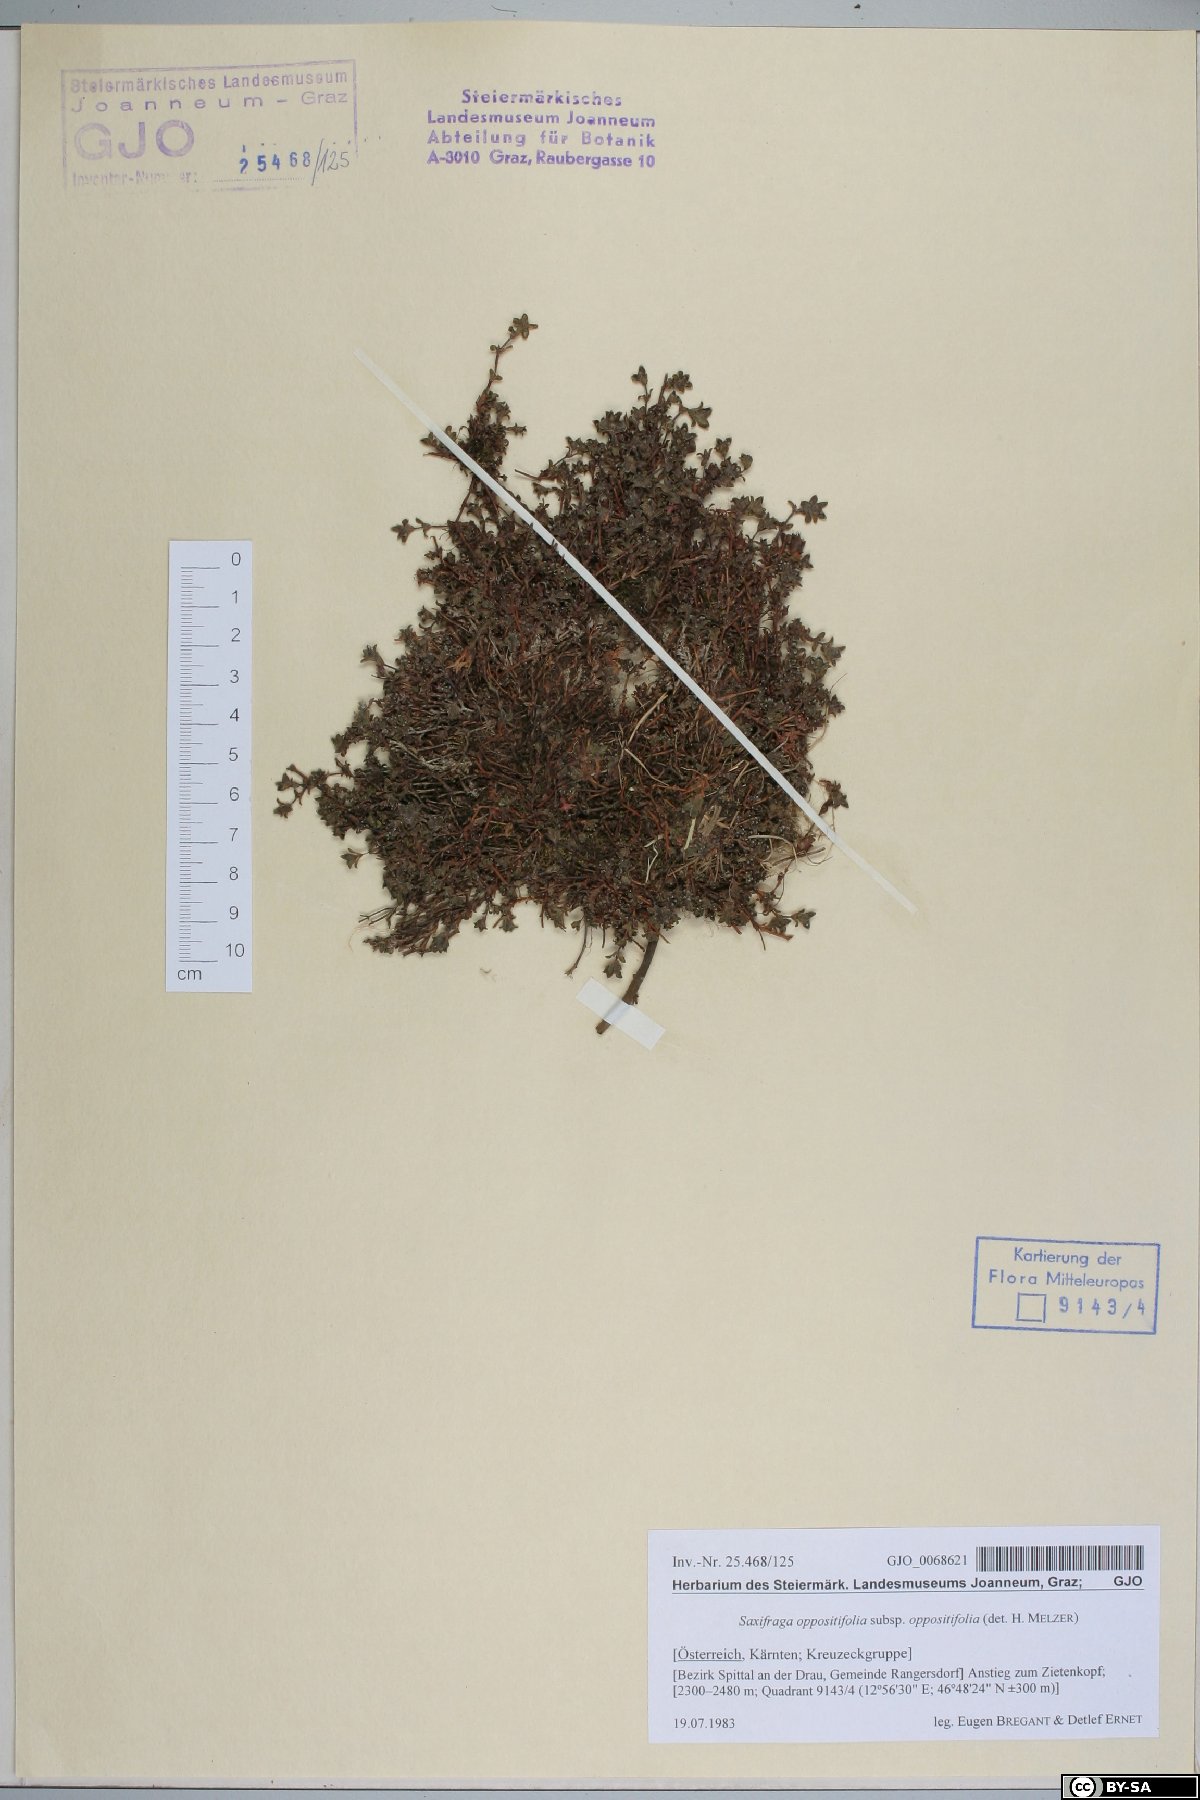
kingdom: Plantae
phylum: Tracheophyta
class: Magnoliopsida
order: Saxifragales
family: Saxifragaceae
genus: Saxifraga
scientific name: Saxifraga oppositifolia
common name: Purple saxifrage
